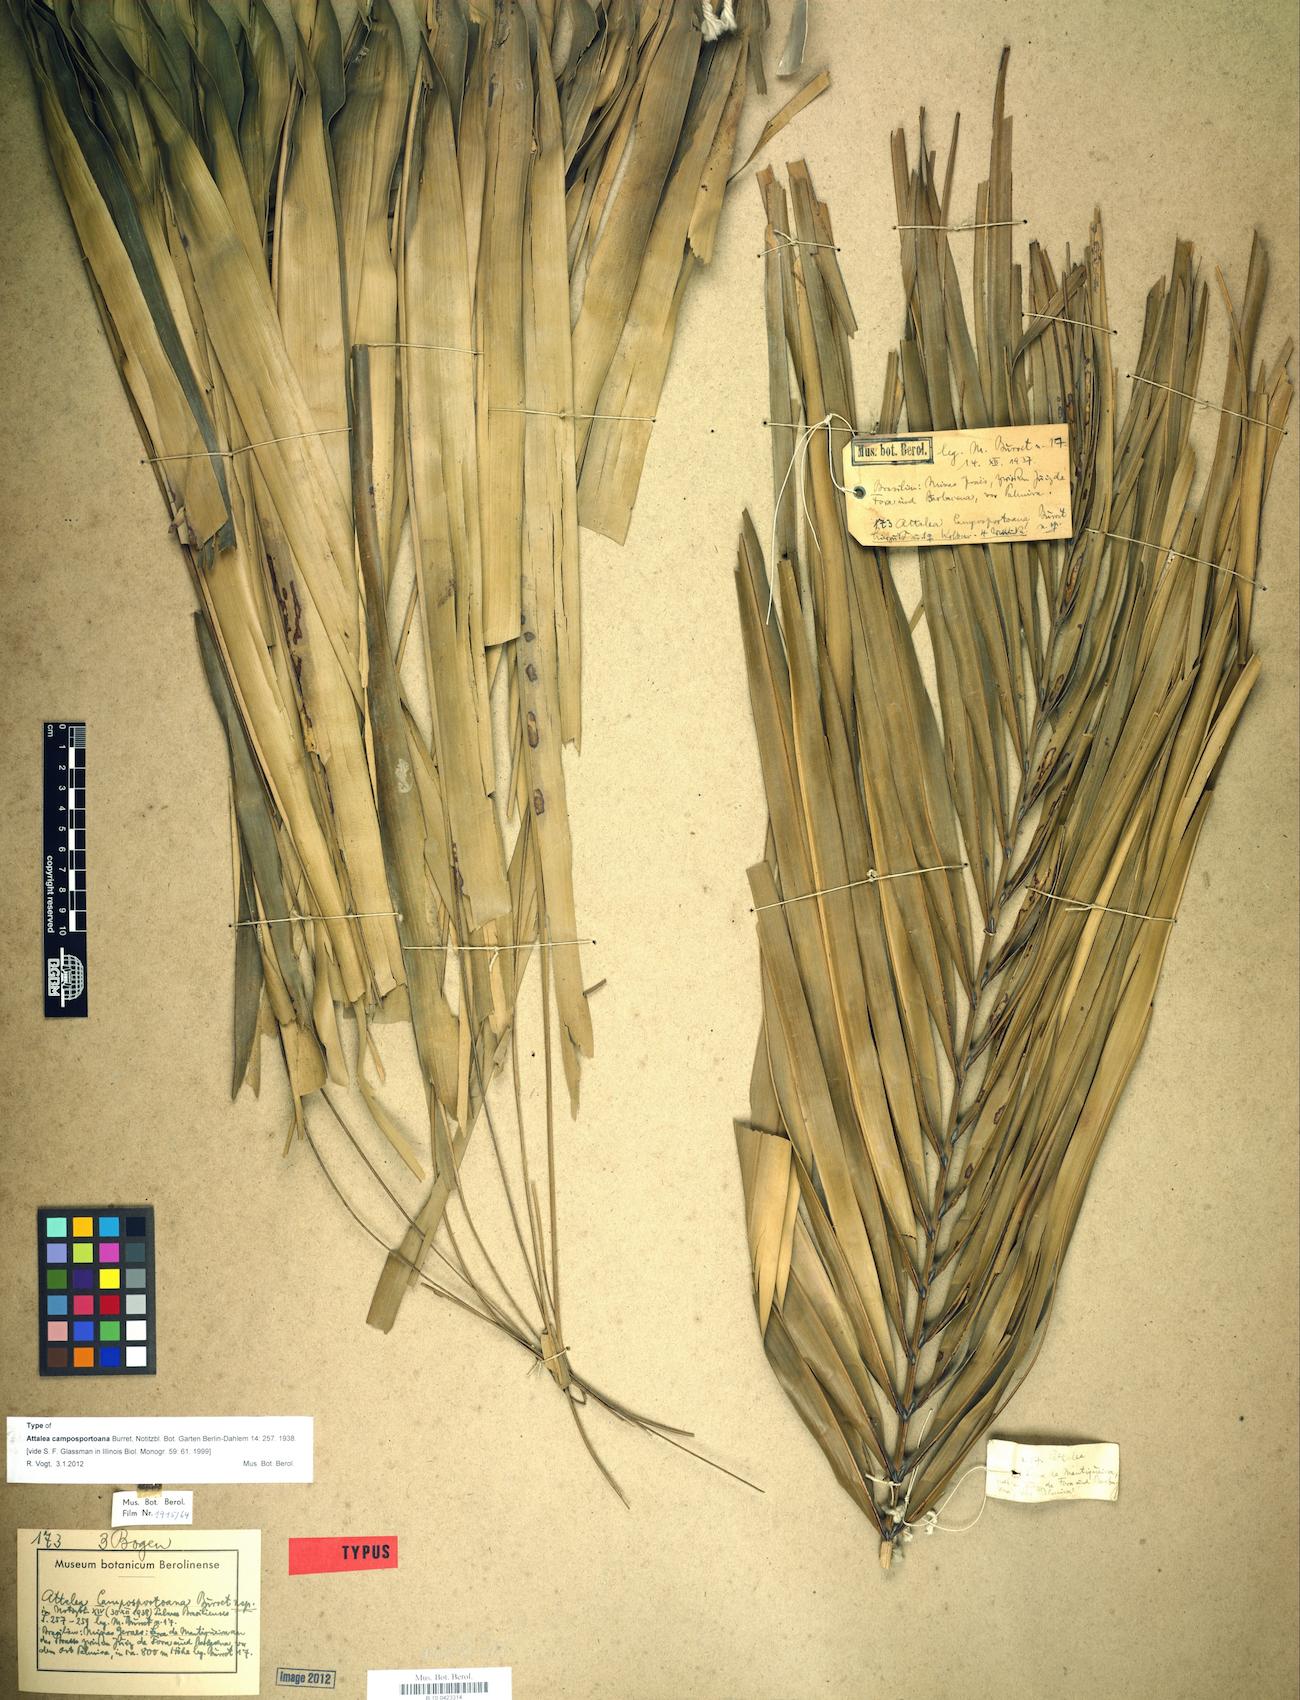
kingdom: Plantae
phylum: Tracheophyta
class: Liliopsida
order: Arecales
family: Arecaceae
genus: Attalea
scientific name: Attalea apoda
